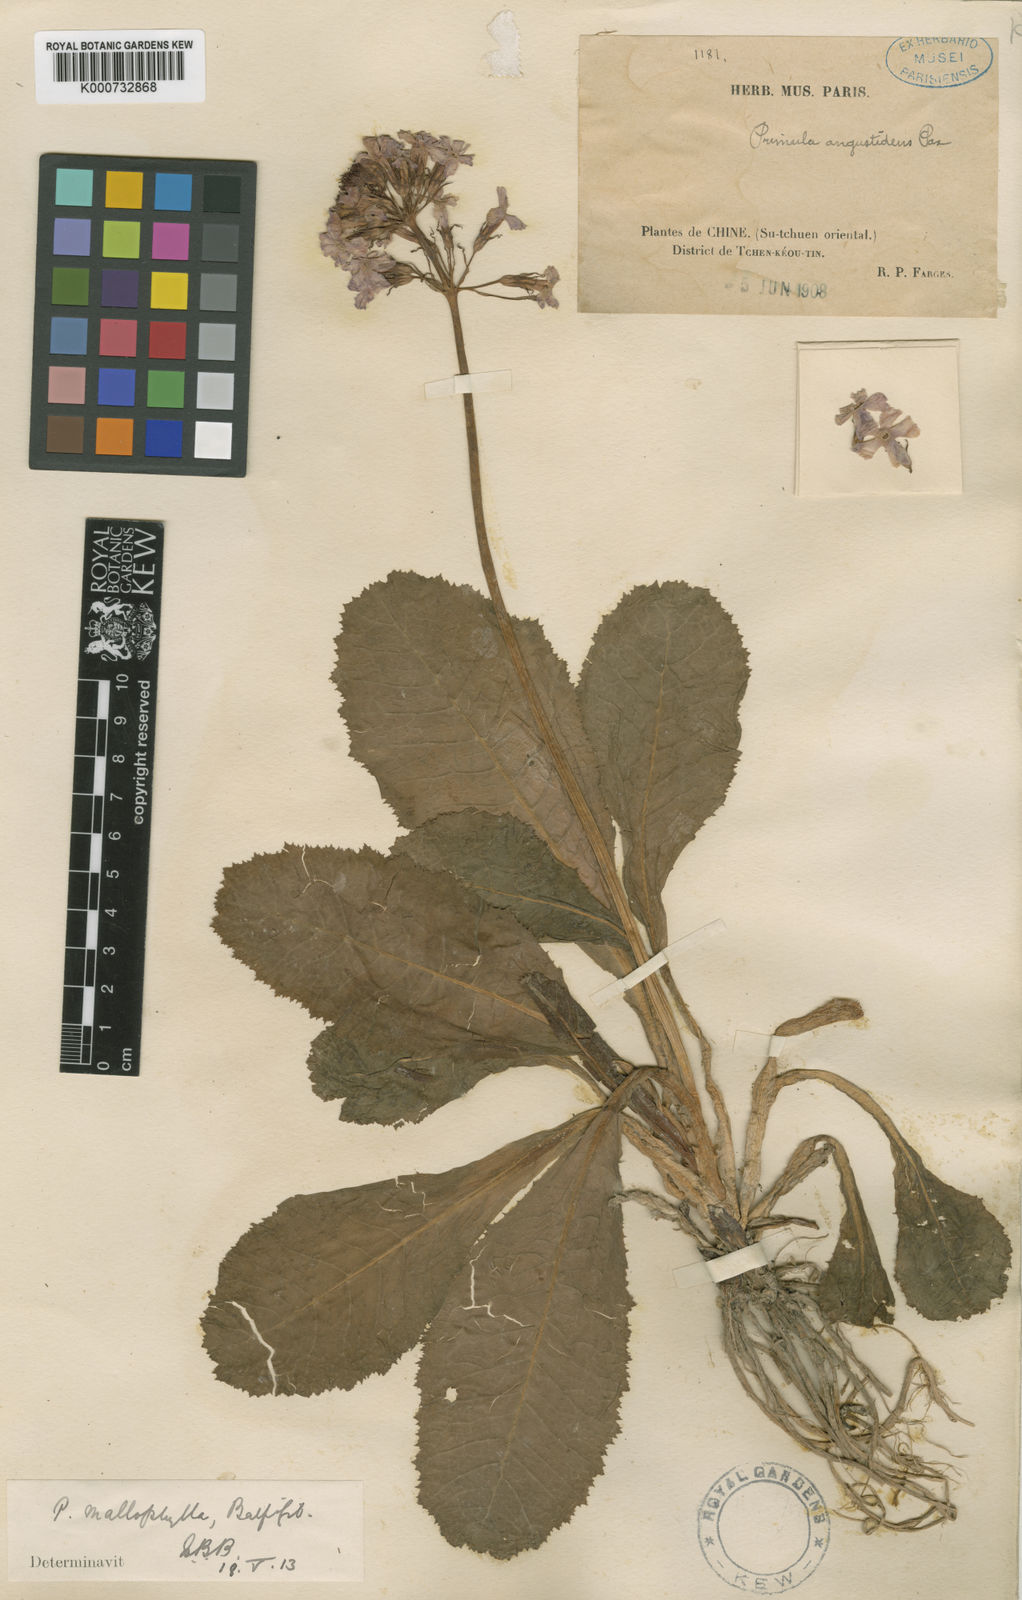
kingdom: Plantae
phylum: Tracheophyta
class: Magnoliopsida
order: Ericales
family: Primulaceae
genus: Primula
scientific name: Primula mallophylla
